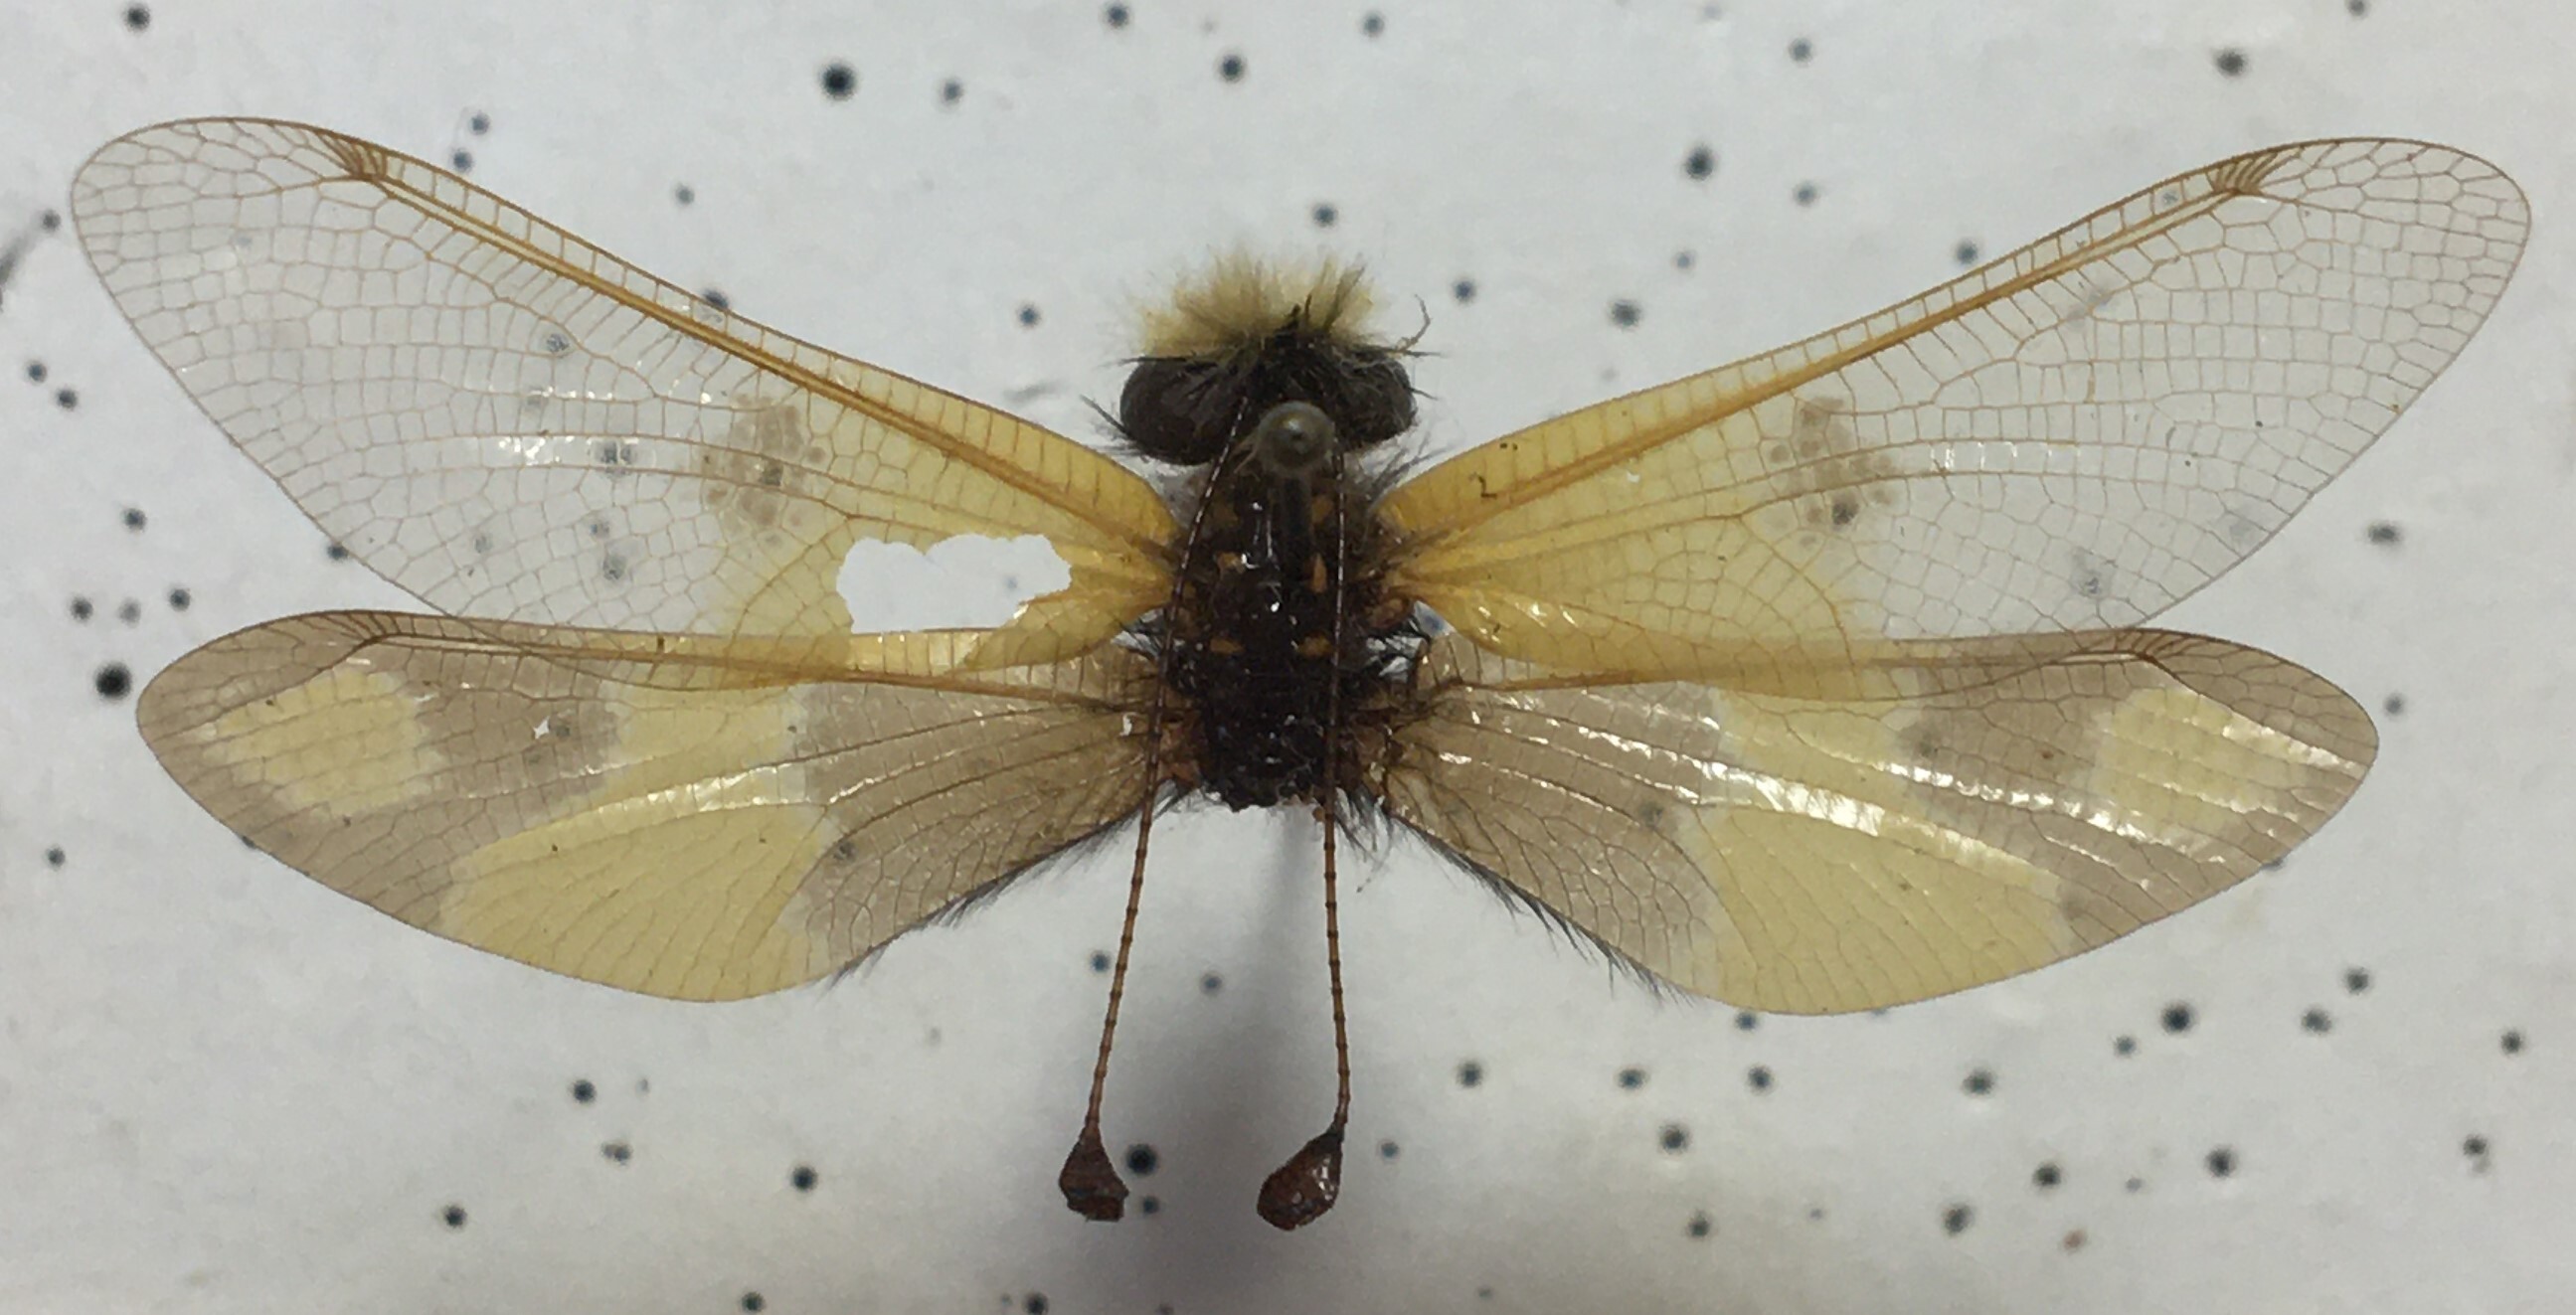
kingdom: Animalia
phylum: Arthropoda
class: Insecta
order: Neuroptera
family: Ascalaphidae
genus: Libelloides
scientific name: Libelloides macaronius
